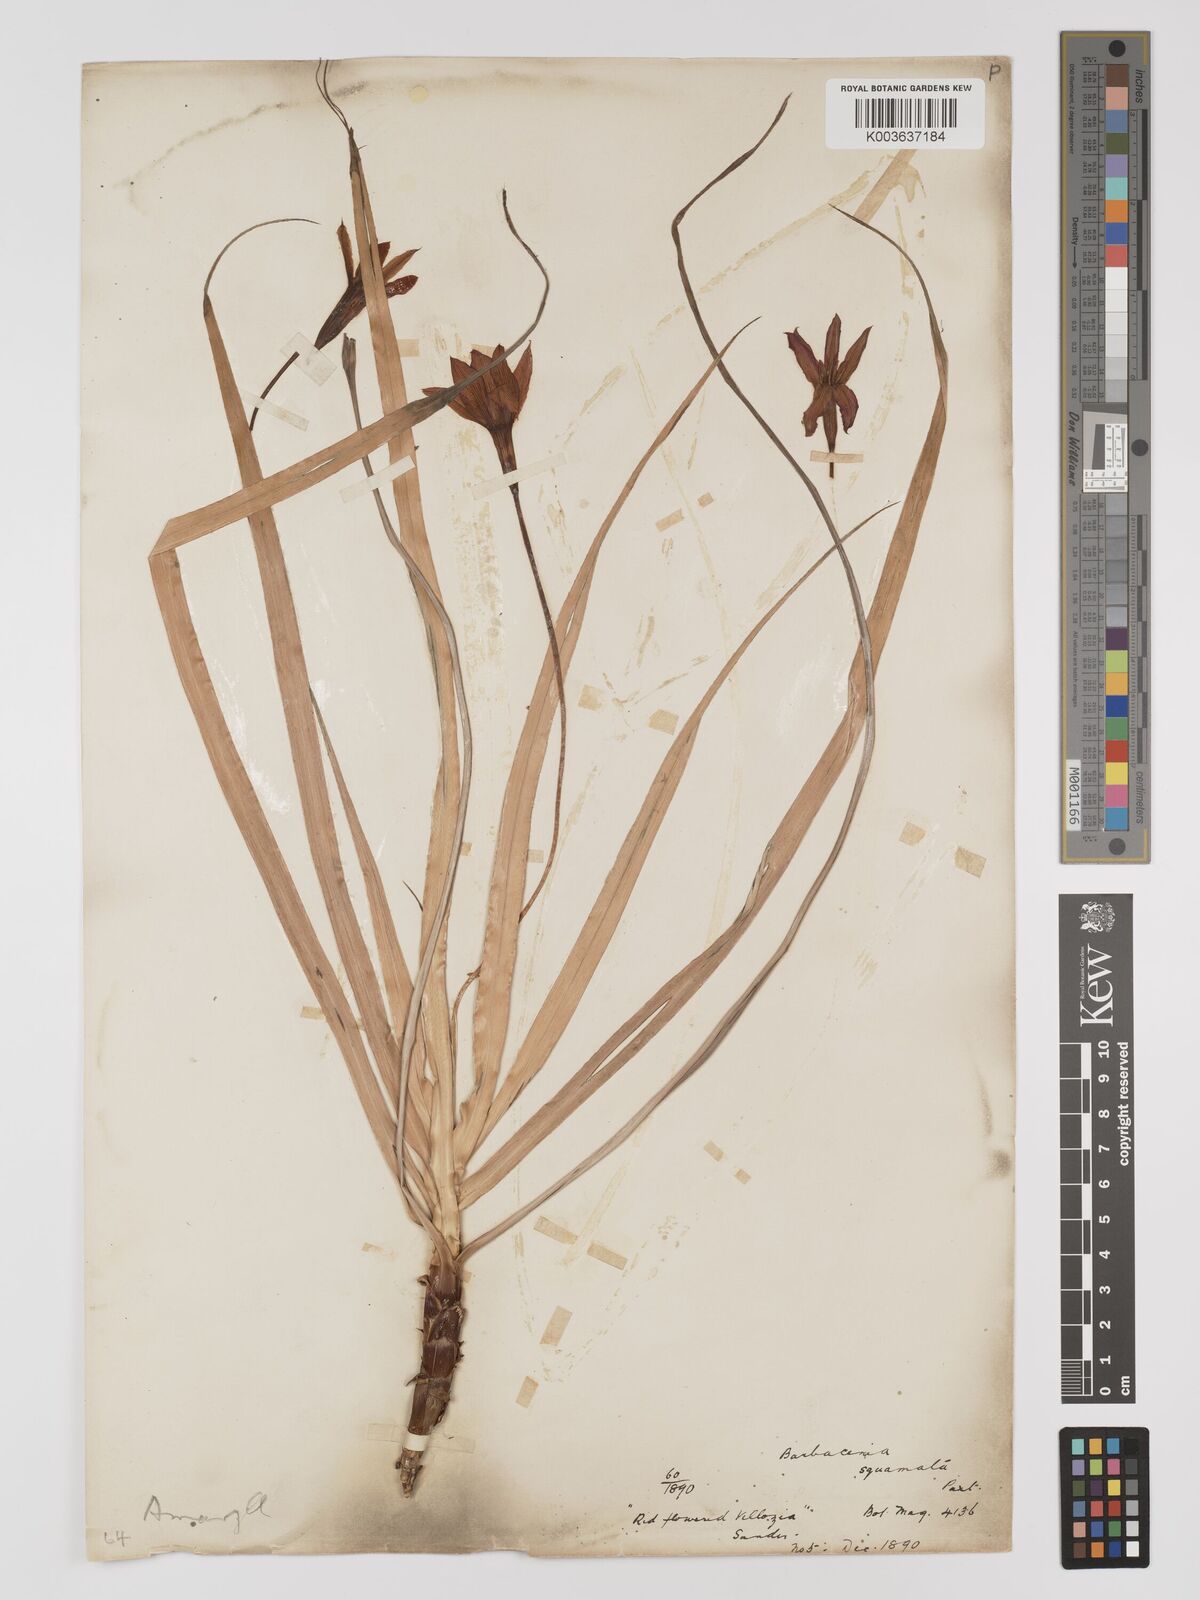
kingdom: Plantae
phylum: Tracheophyta
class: Liliopsida
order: Pandanales
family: Velloziaceae
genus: Barbacenia
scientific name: Barbacenia squamata
